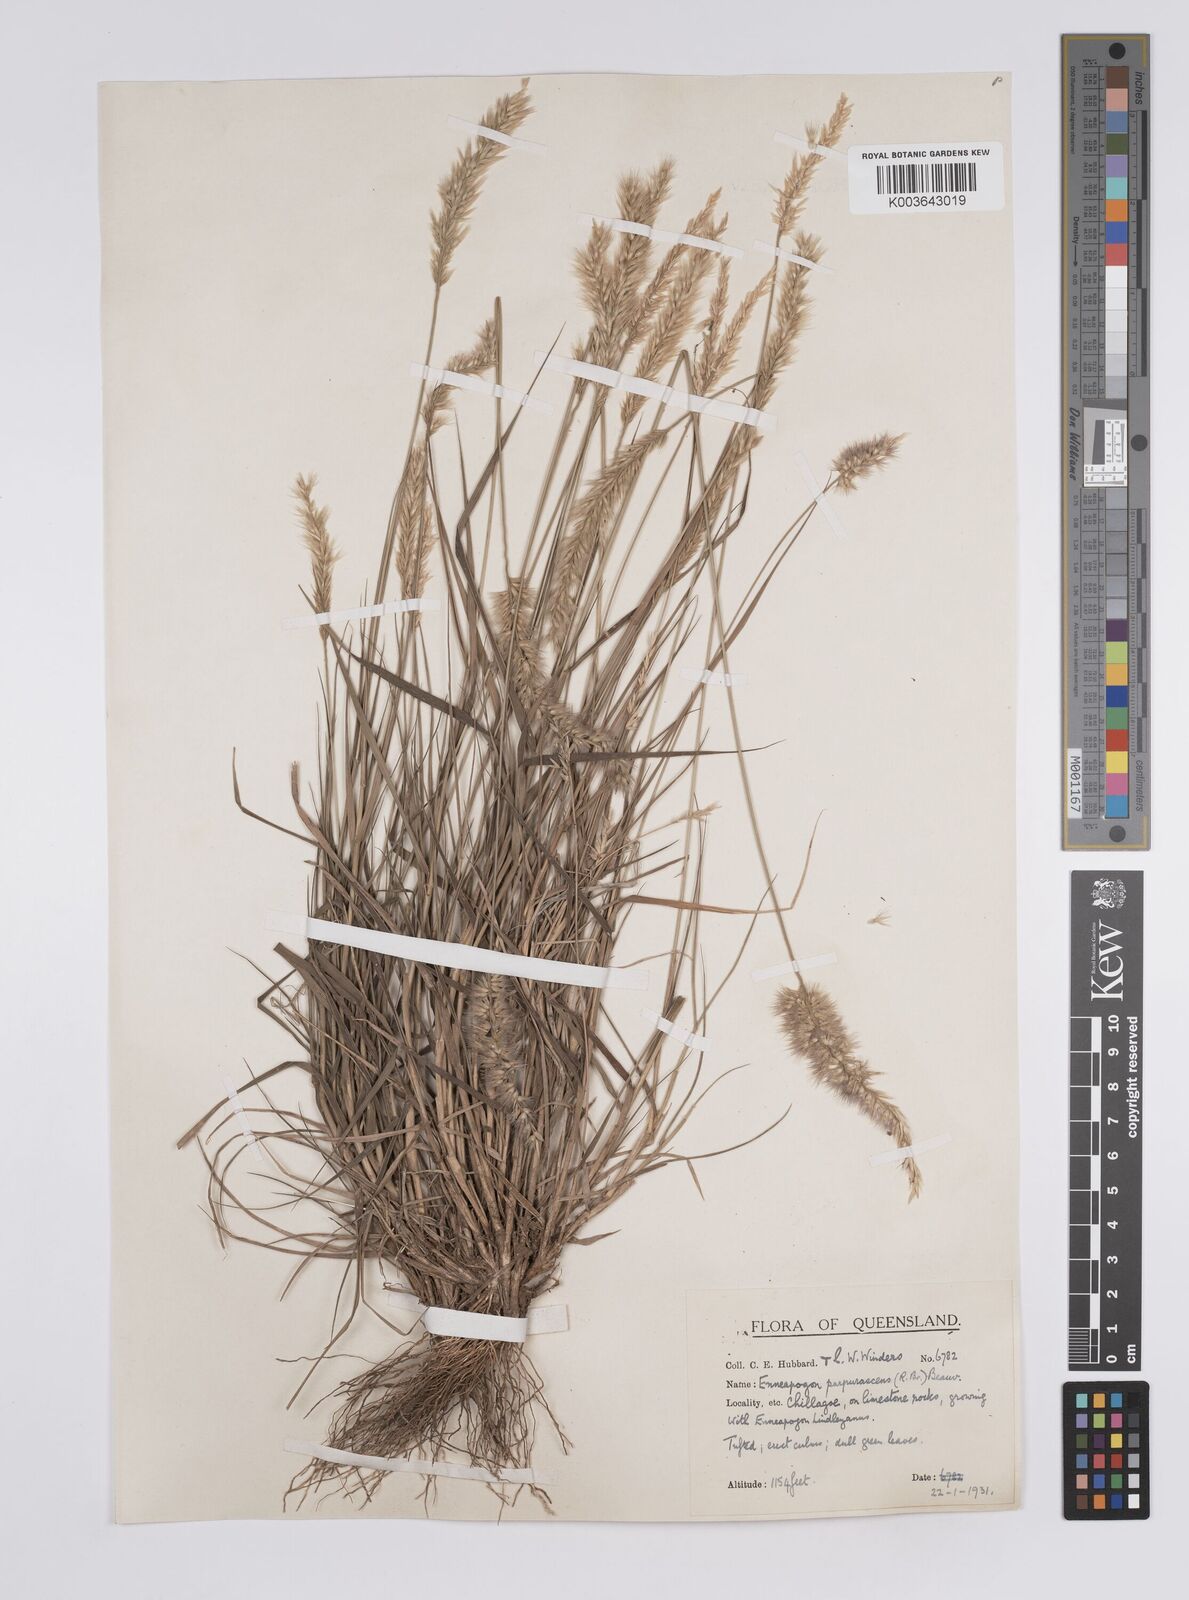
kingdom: Plantae
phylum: Tracheophyta
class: Liliopsida
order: Poales
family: Poaceae
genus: Enneapogon
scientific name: Enneapogon purpurascens
